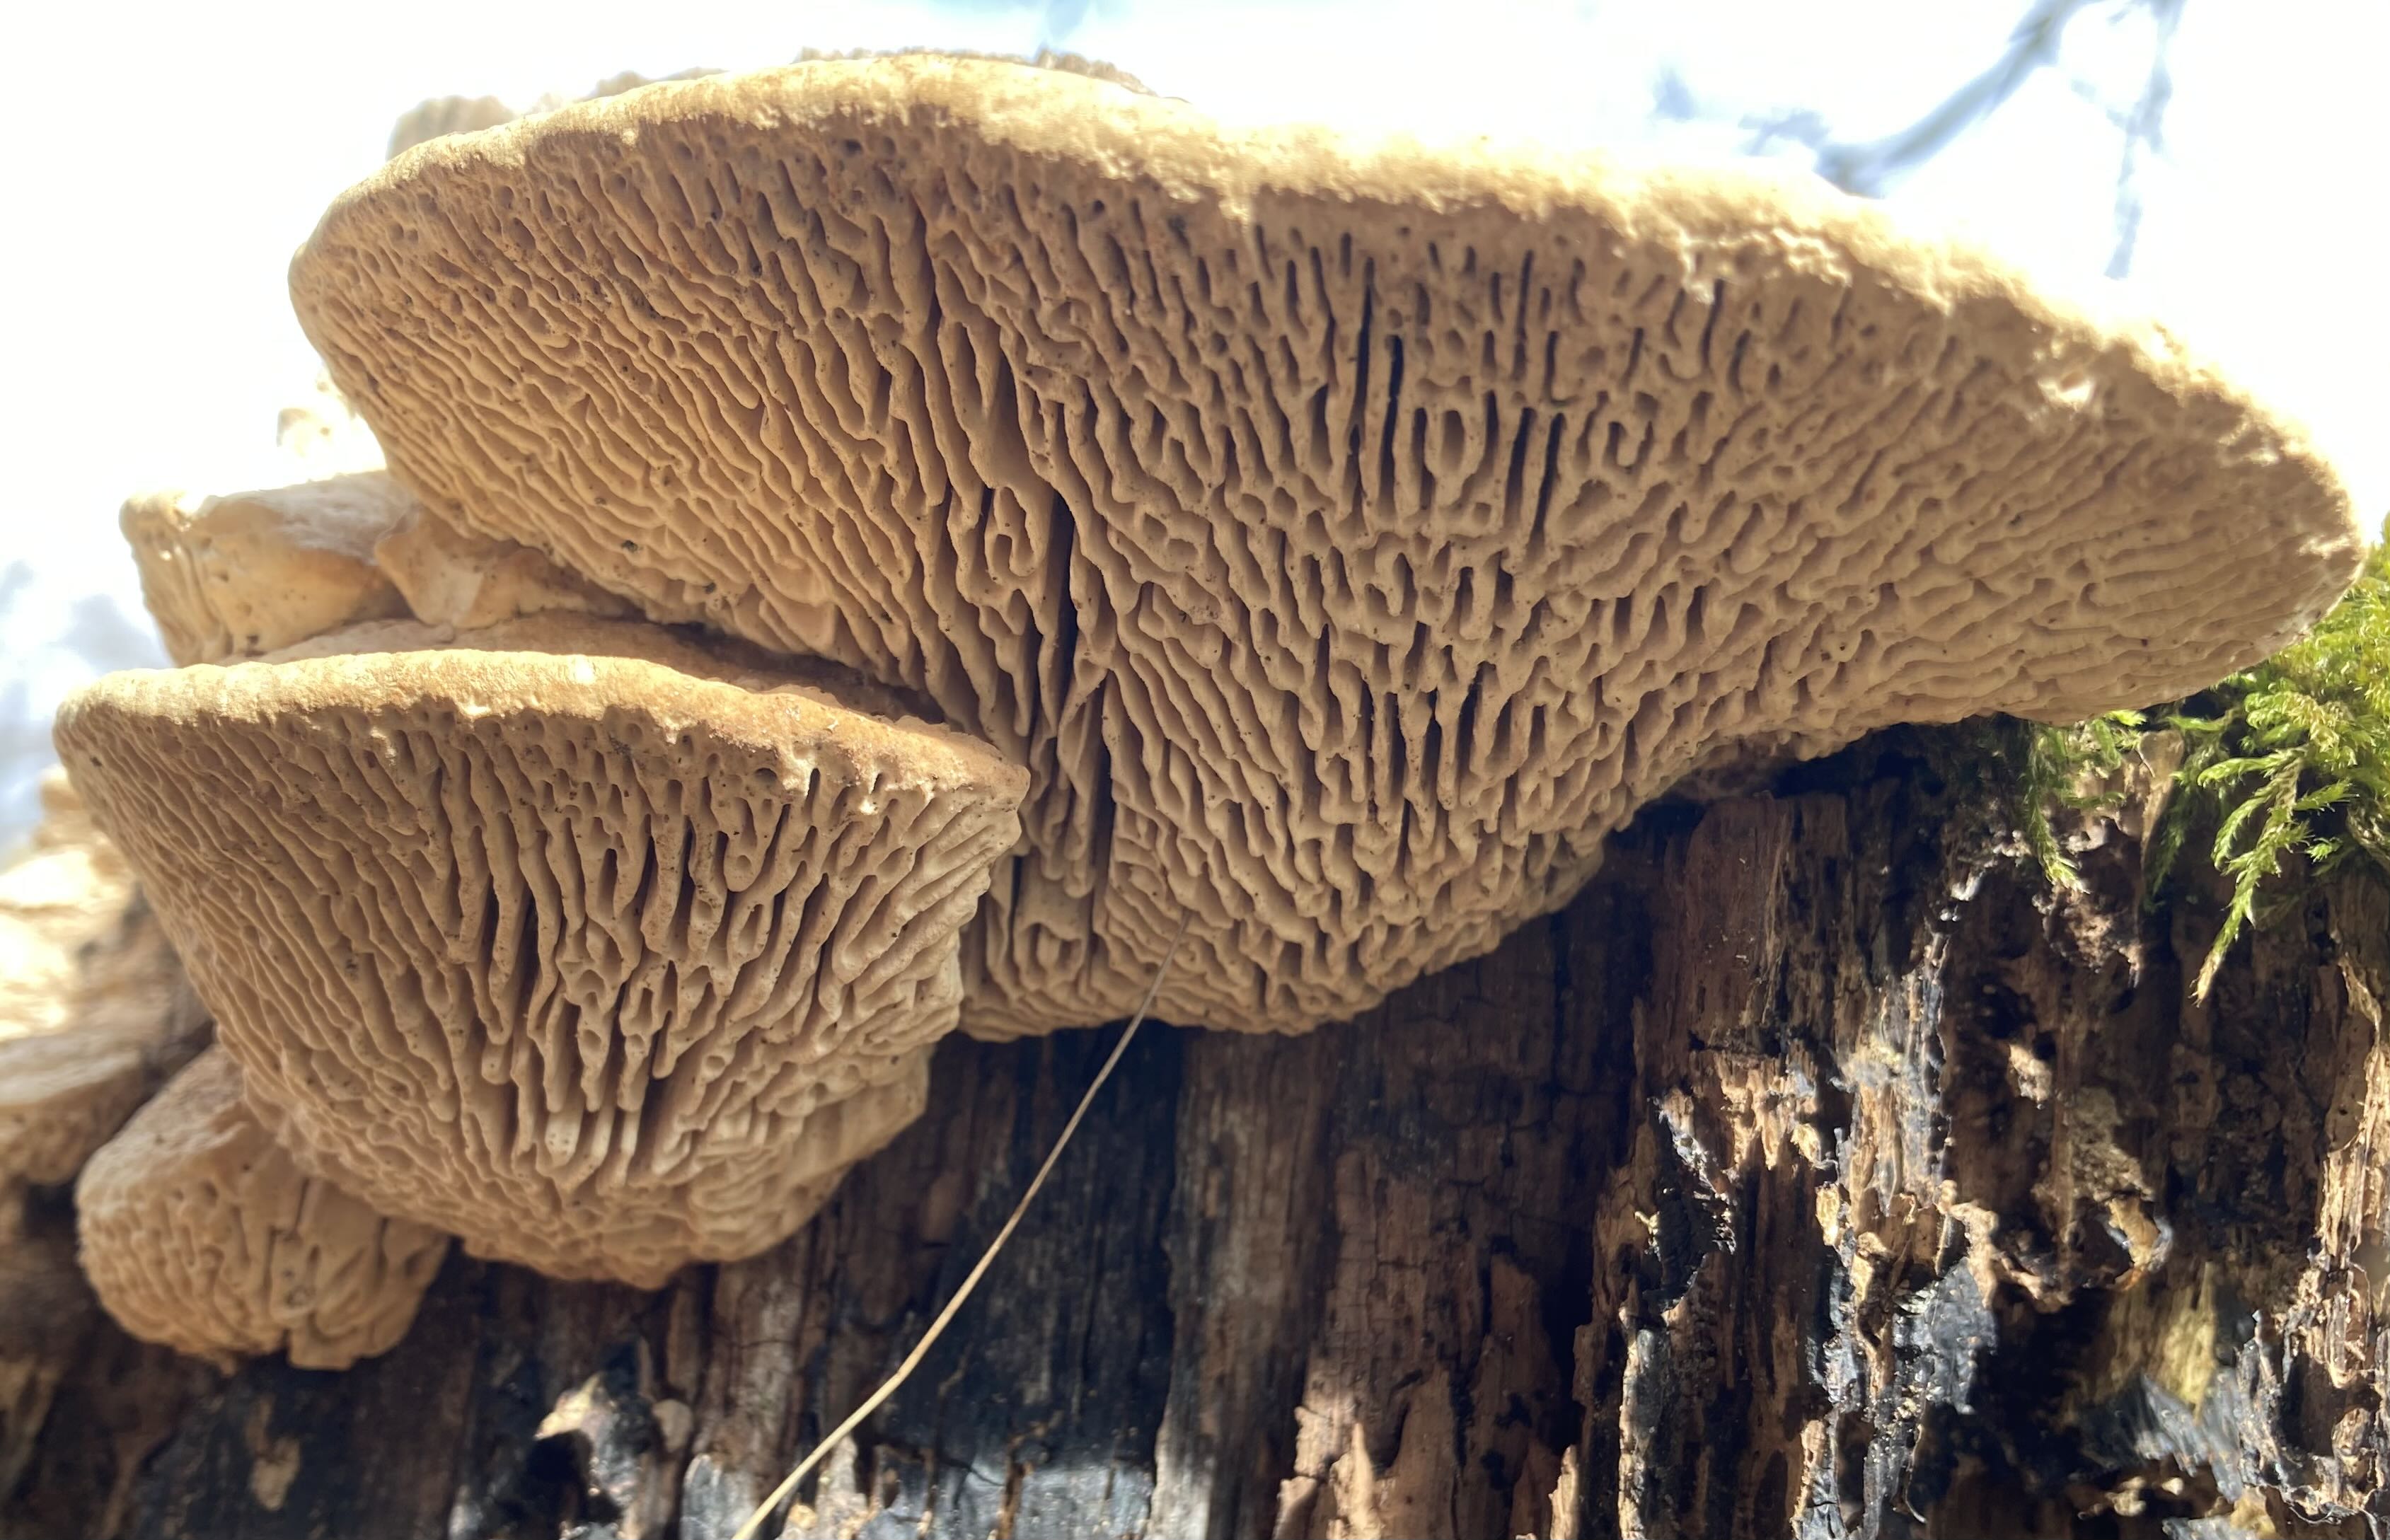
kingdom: Fungi
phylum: Basidiomycota
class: Agaricomycetes
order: Polyporales
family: Fomitopsidaceae
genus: Daedalea
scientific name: Daedalea quercina
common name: ege-labyrintsvamp
